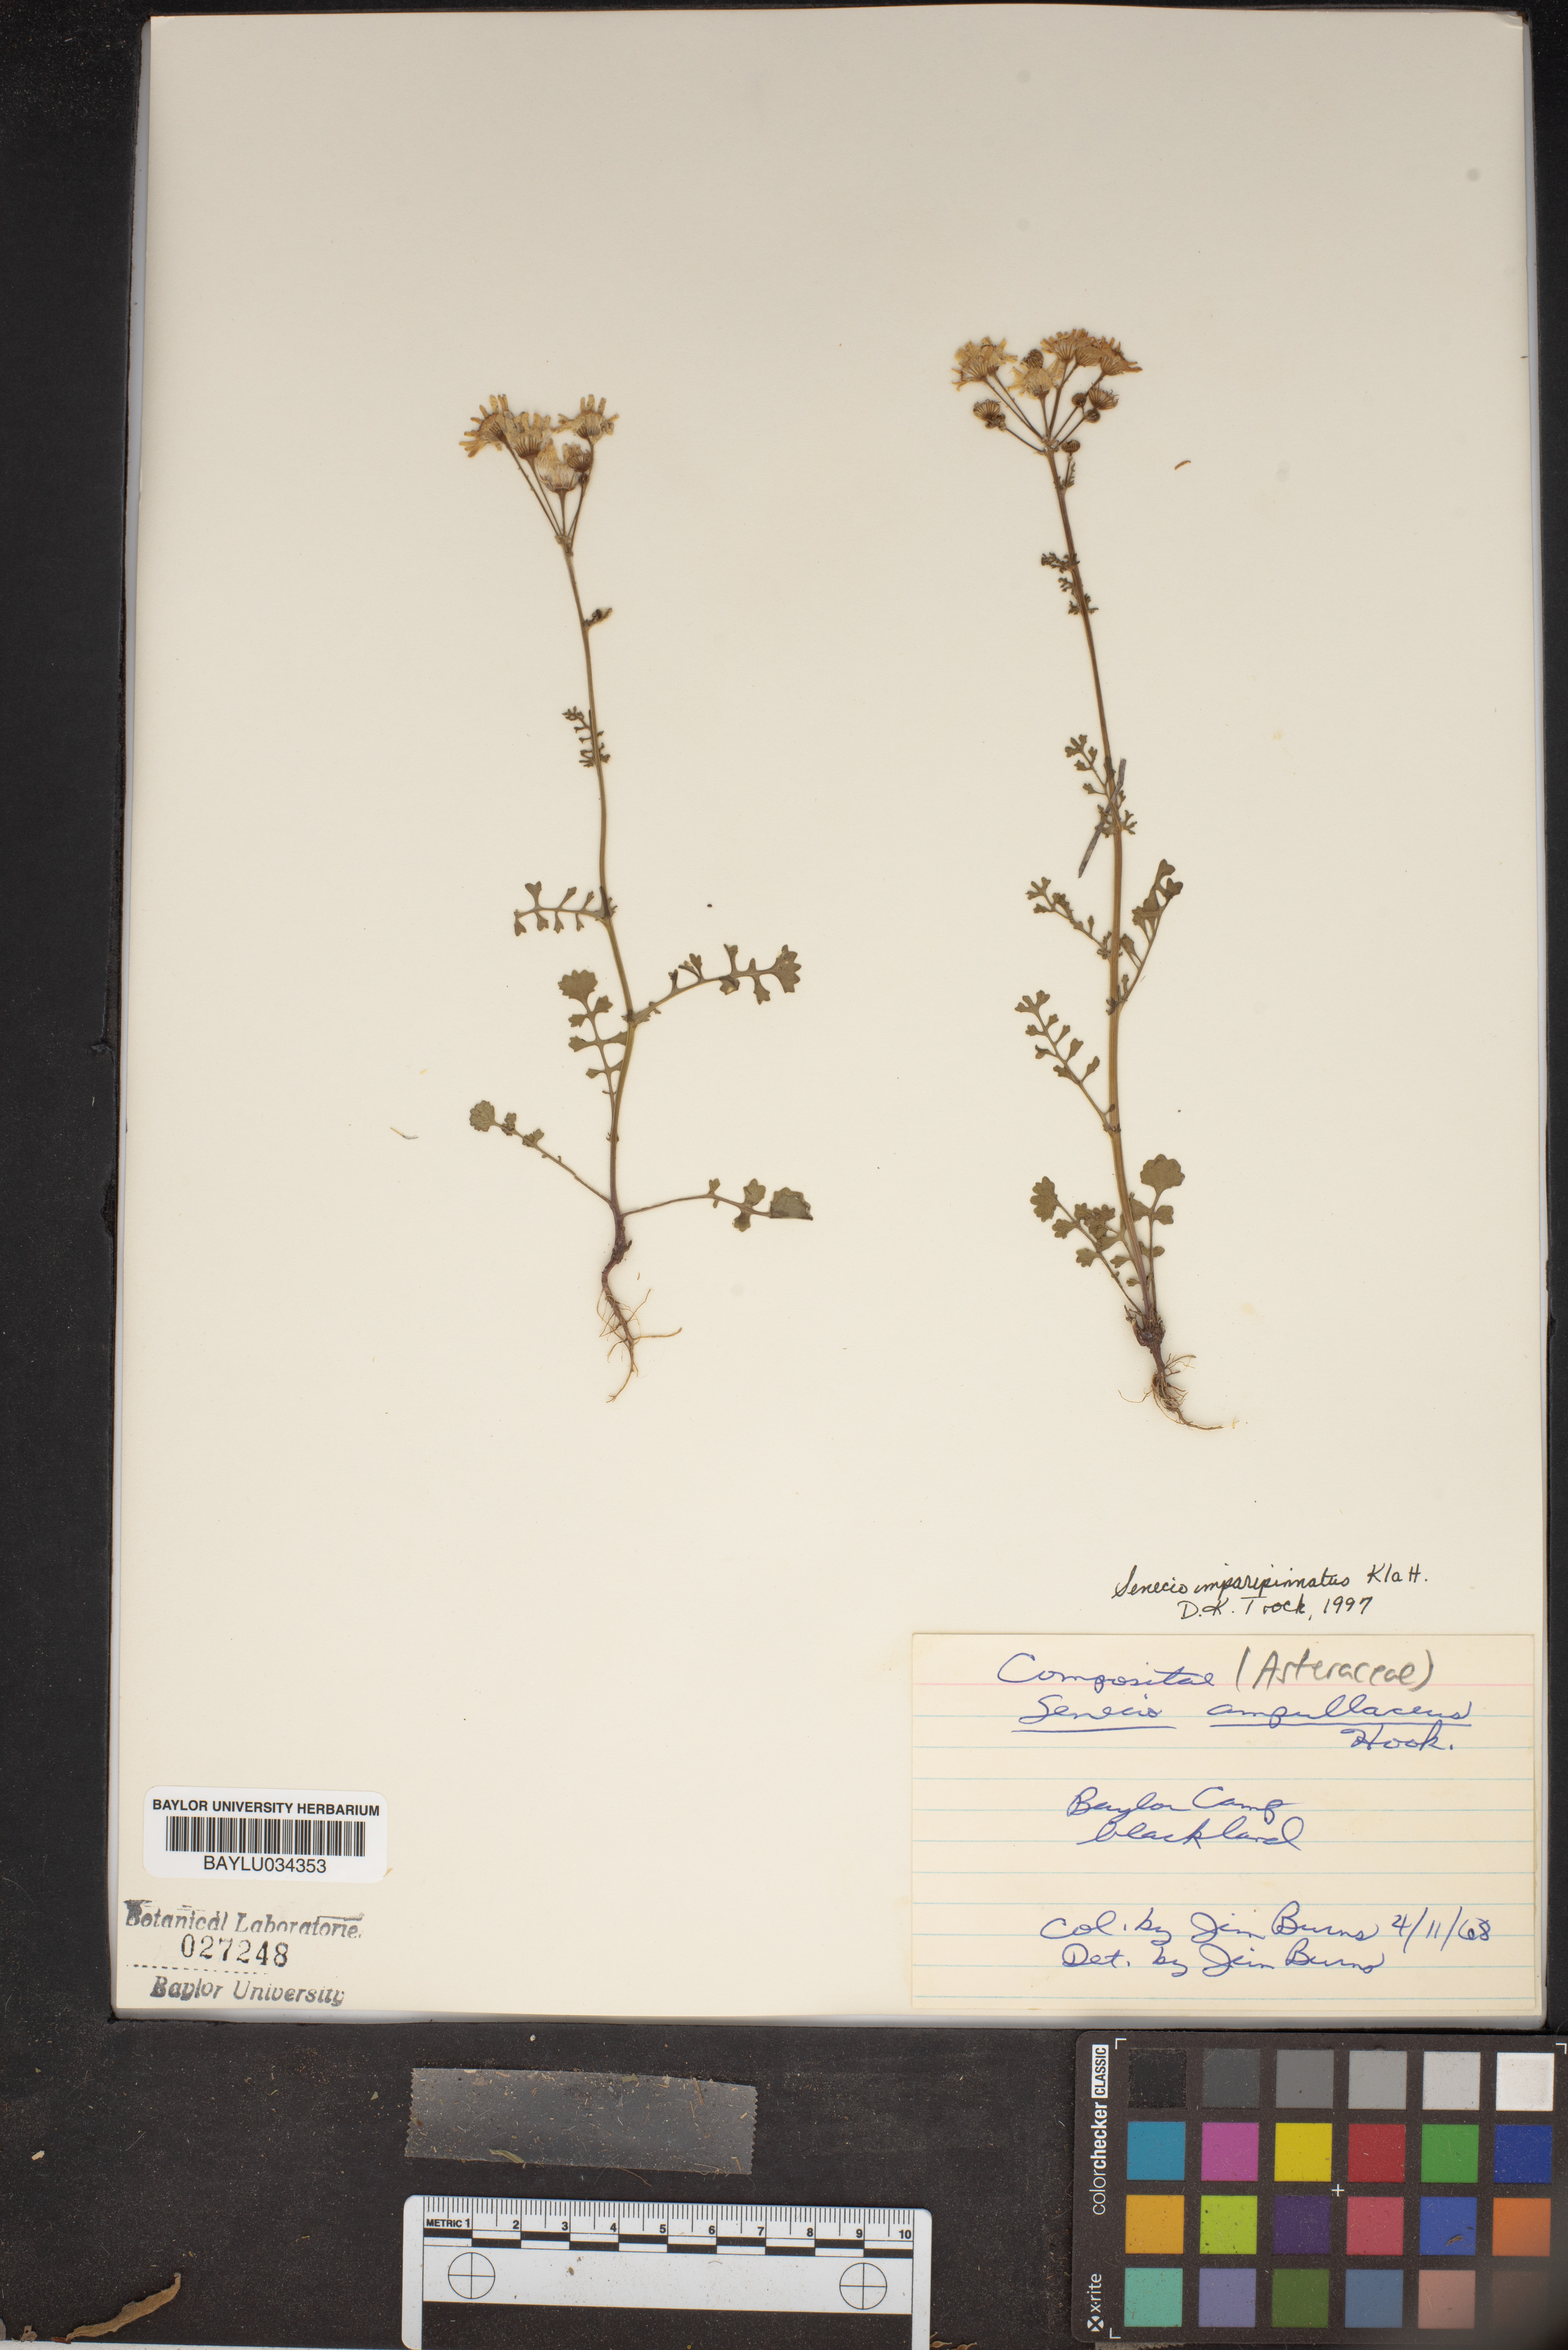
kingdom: Plantae
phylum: Tracheophyta
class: Magnoliopsida
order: Asterales
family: Asteraceae
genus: Packera
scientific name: Packera tampicana
